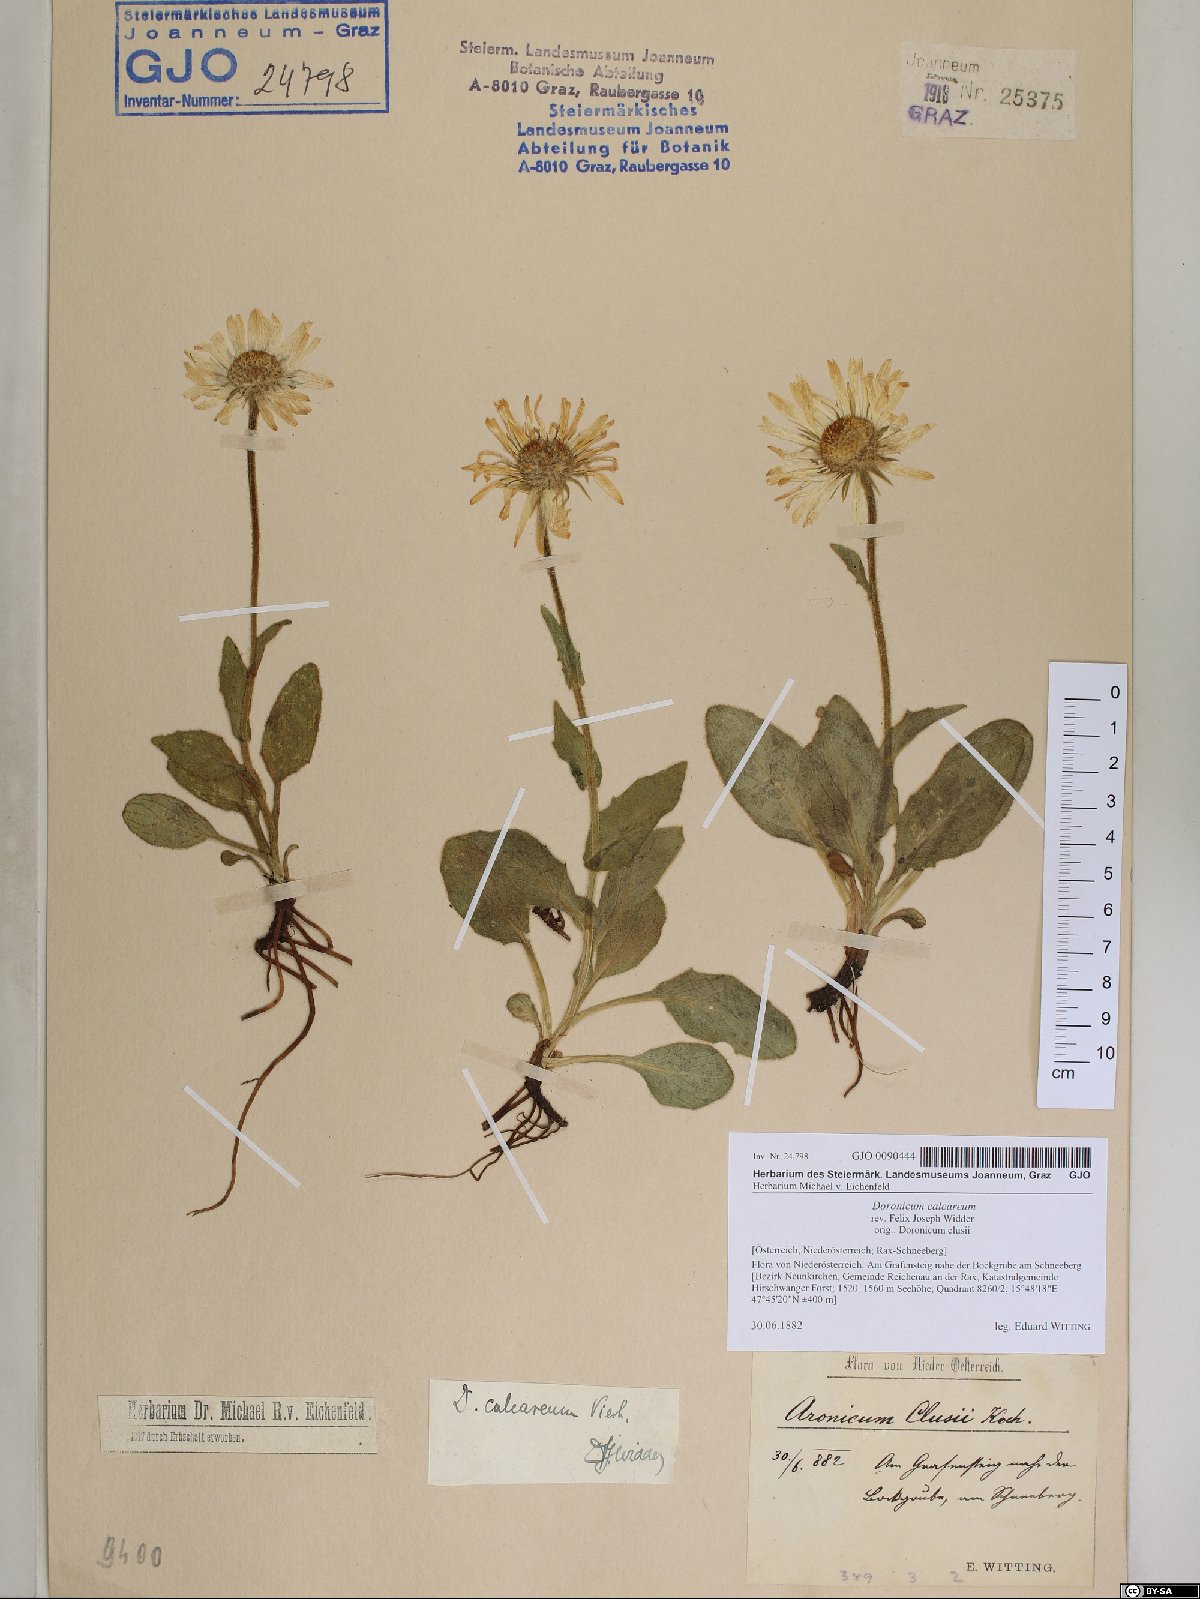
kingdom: Plantae
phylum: Tracheophyta
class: Magnoliopsida
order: Asterales
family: Asteraceae
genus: Doronicum
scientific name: Doronicum glaciale
